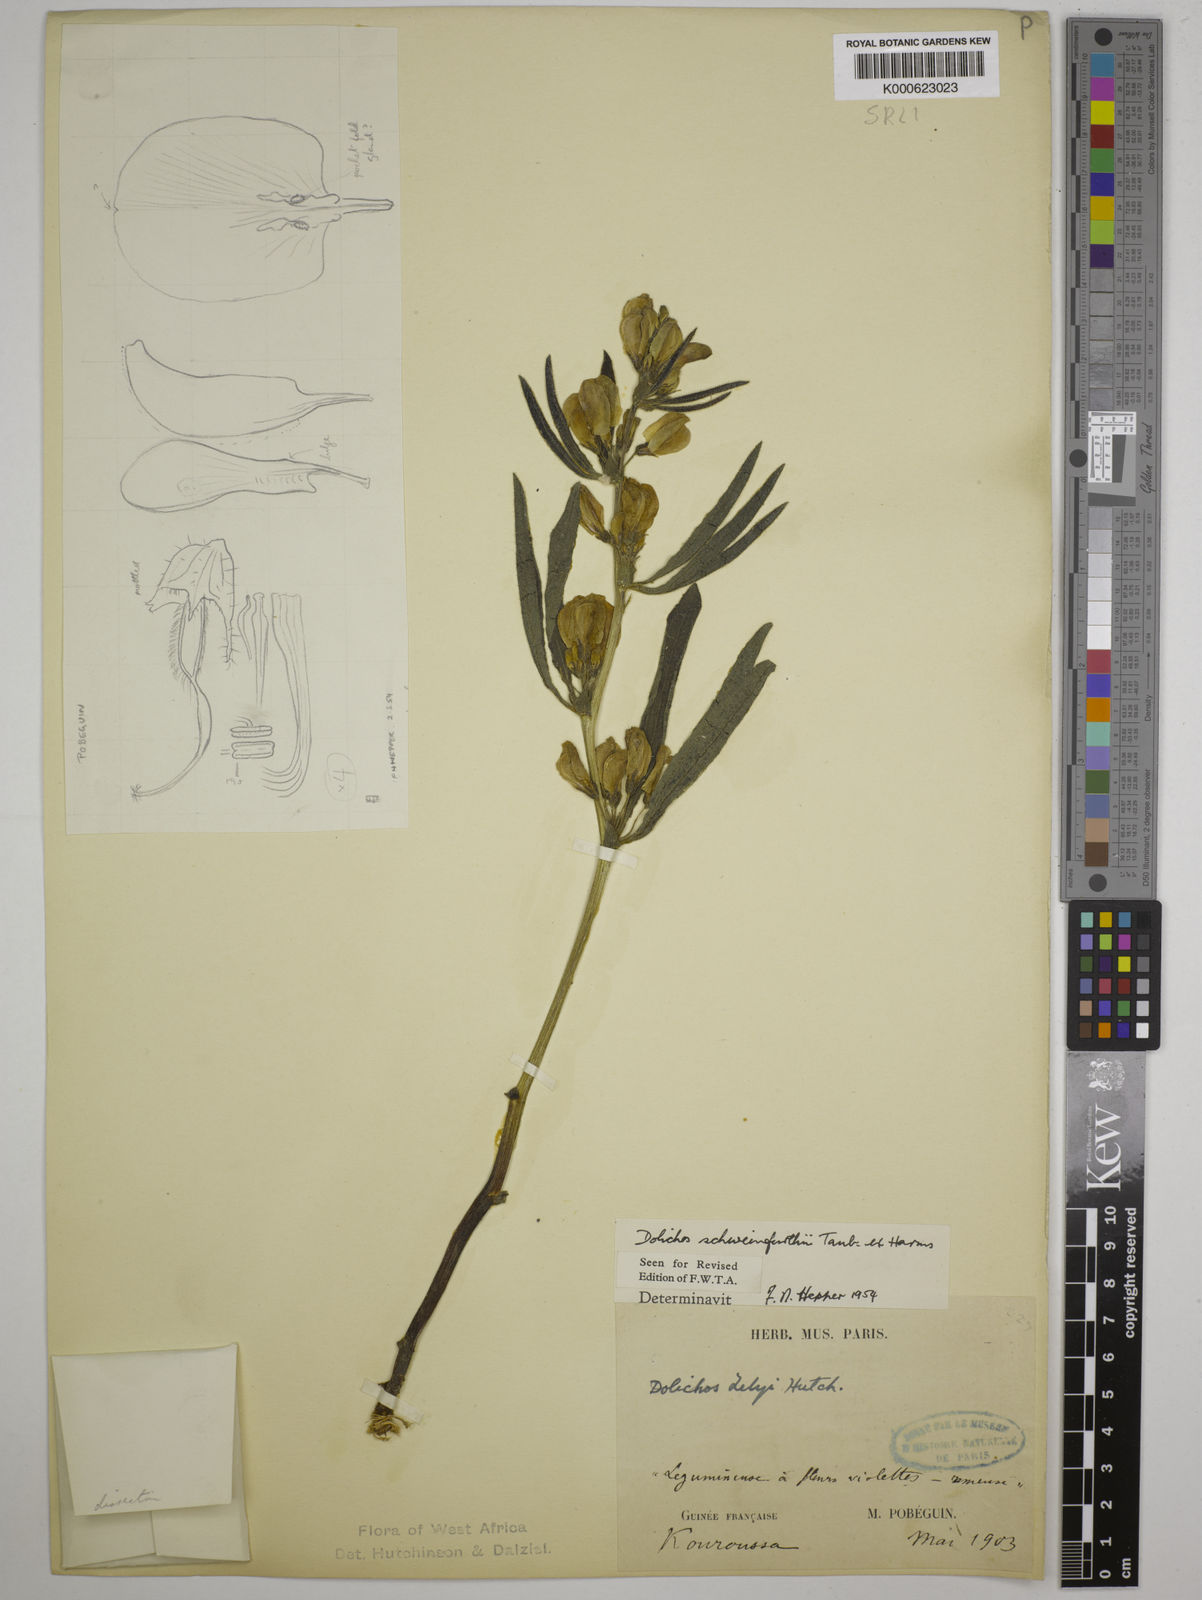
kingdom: Plantae
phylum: Tracheophyta
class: Magnoliopsida
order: Fabales
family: Fabaceae
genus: Dolichos
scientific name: Dolichos
